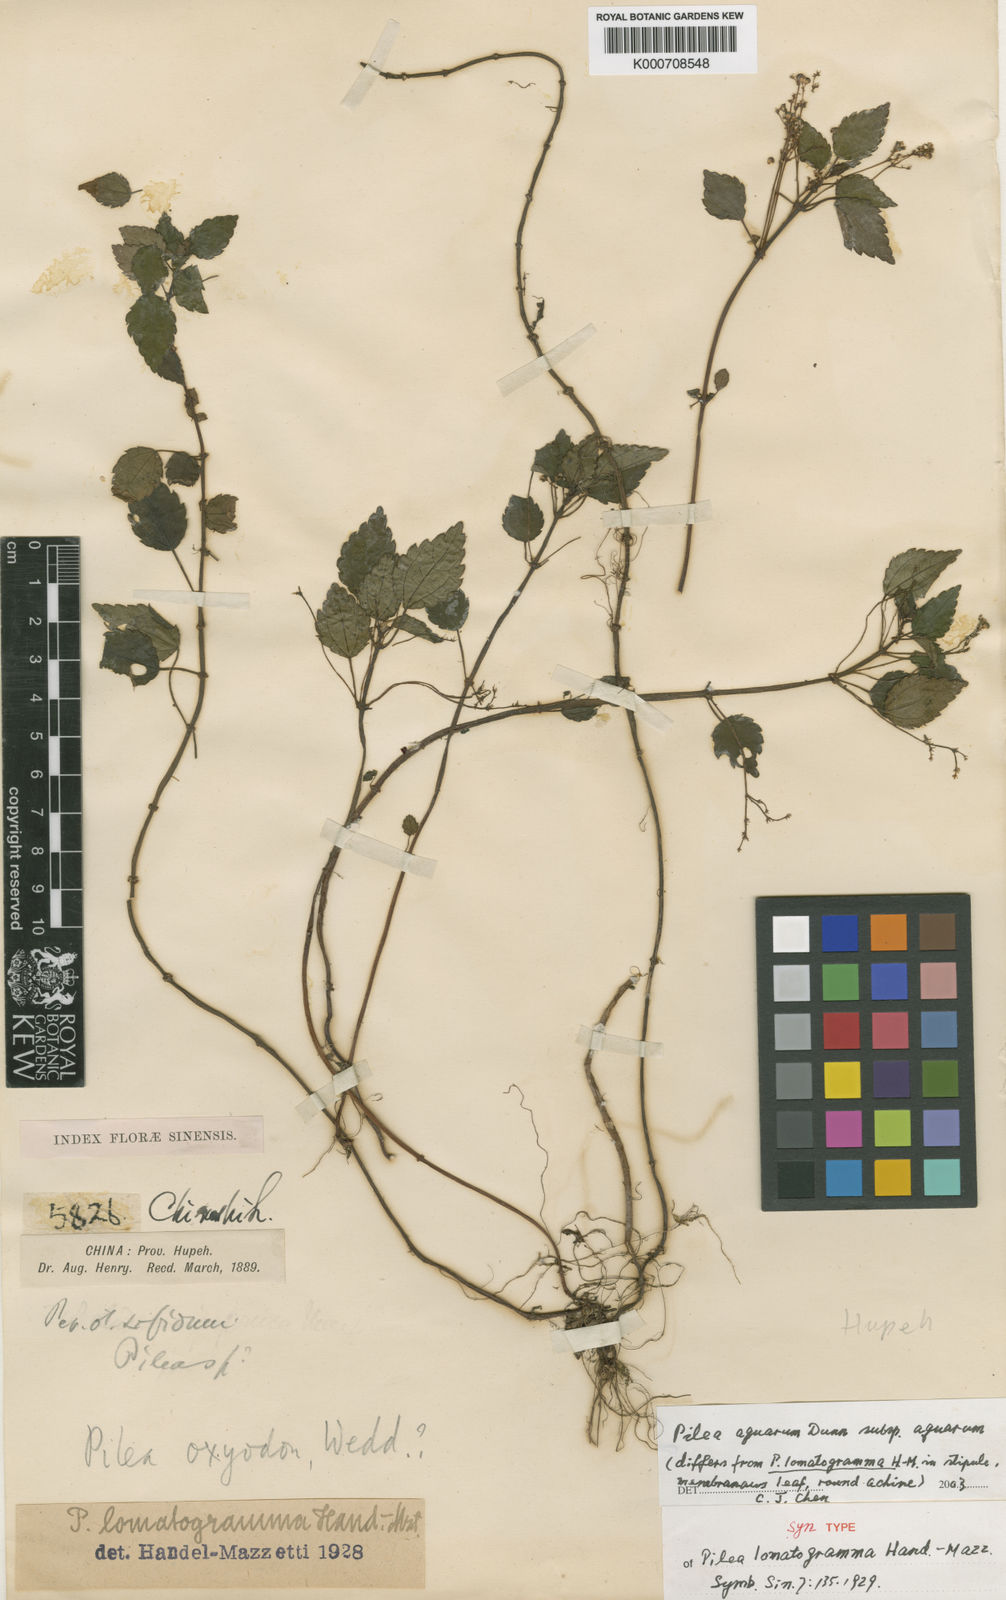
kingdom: Plantae
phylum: Tracheophyta
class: Magnoliopsida
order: Rosales
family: Urticaceae
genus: Pilea
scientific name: Pilea aquarum
